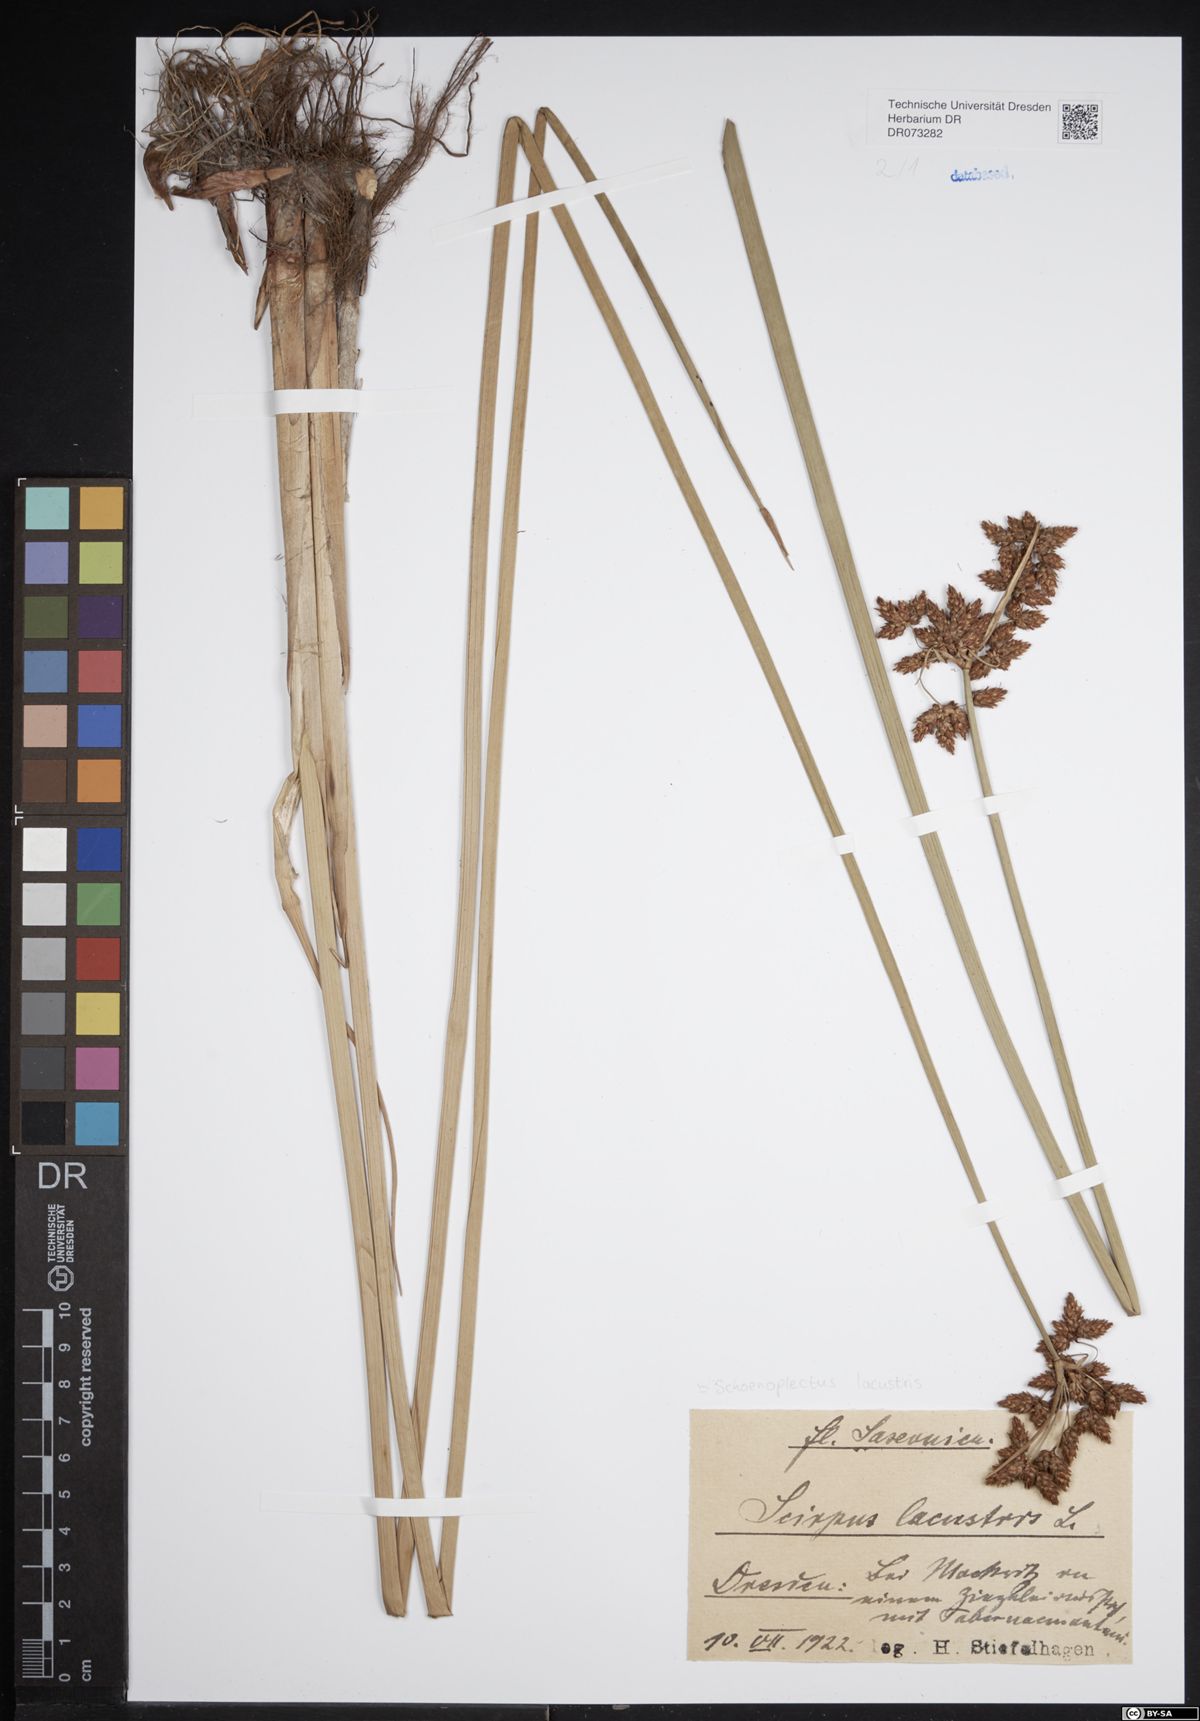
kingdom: Plantae
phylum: Tracheophyta
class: Liliopsida
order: Poales
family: Cyperaceae
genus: Schoenoplectus
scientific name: Schoenoplectus lacustris
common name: Common club-rush
